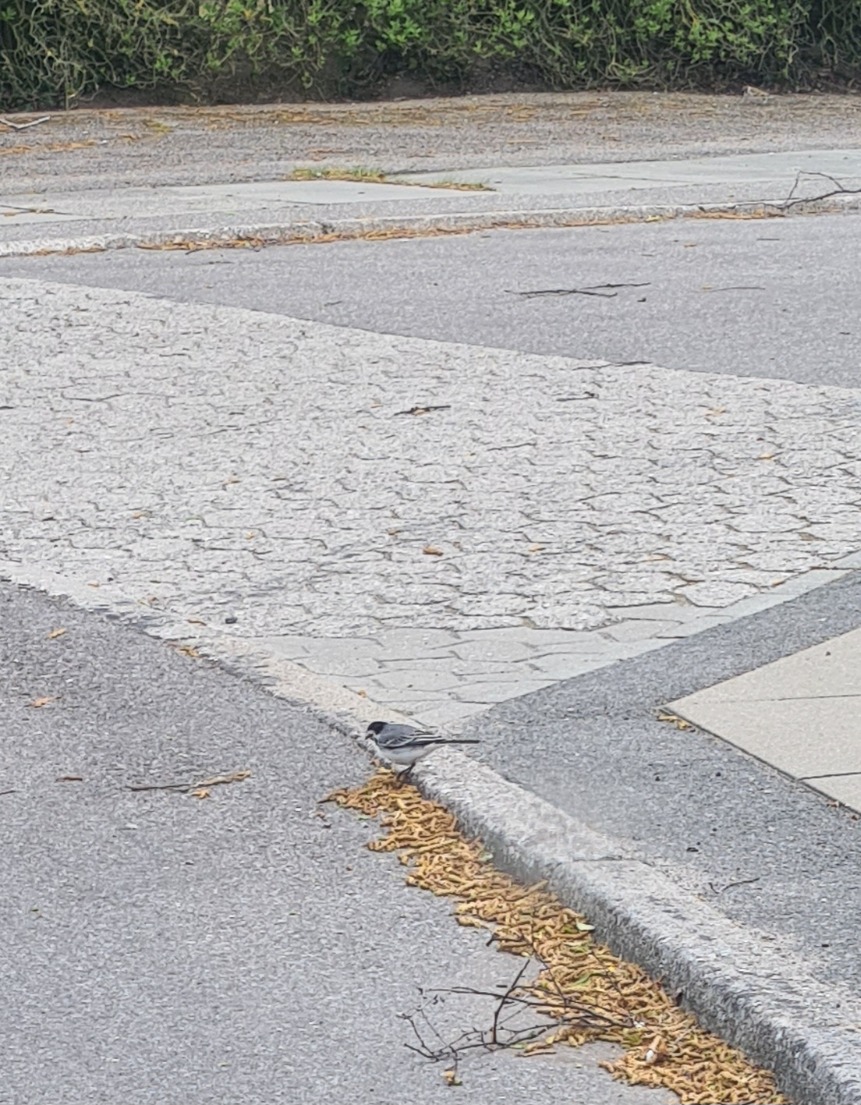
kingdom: Animalia
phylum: Chordata
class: Aves
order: Passeriformes
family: Motacillidae
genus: Motacilla
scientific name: Motacilla alba
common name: Hvid vipstjert
